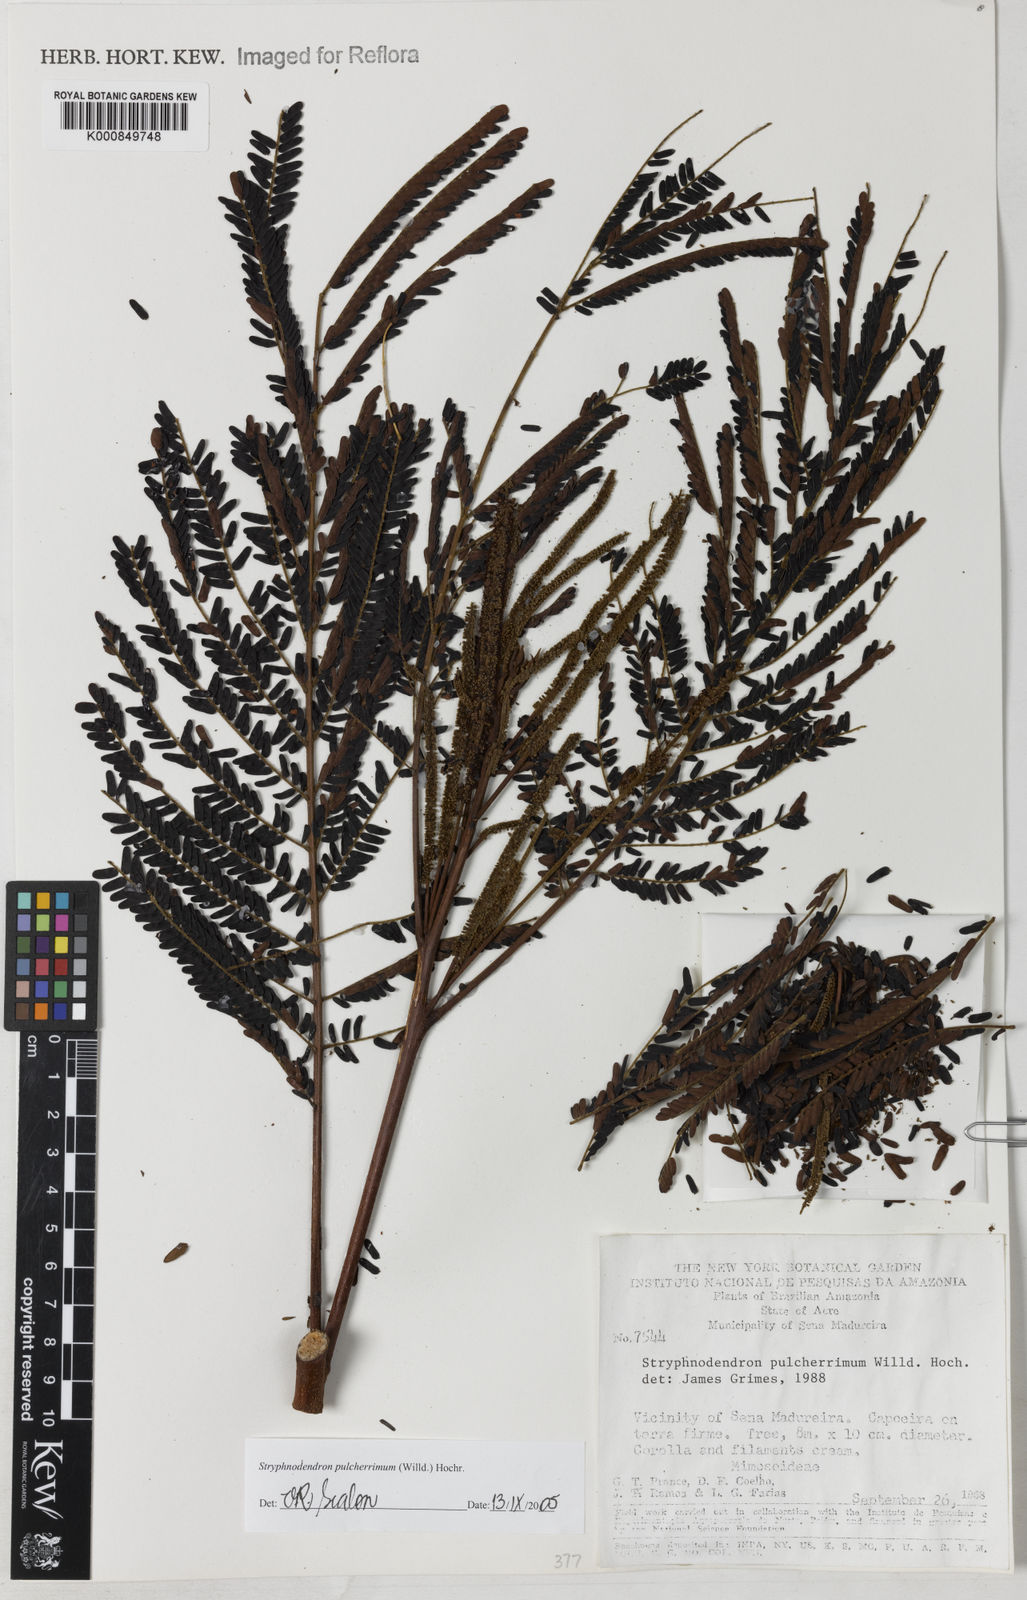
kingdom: Plantae
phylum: Tracheophyta
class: Magnoliopsida
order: Fabales
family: Fabaceae
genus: Stryphnodendron
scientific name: Stryphnodendron pulcherrimum
